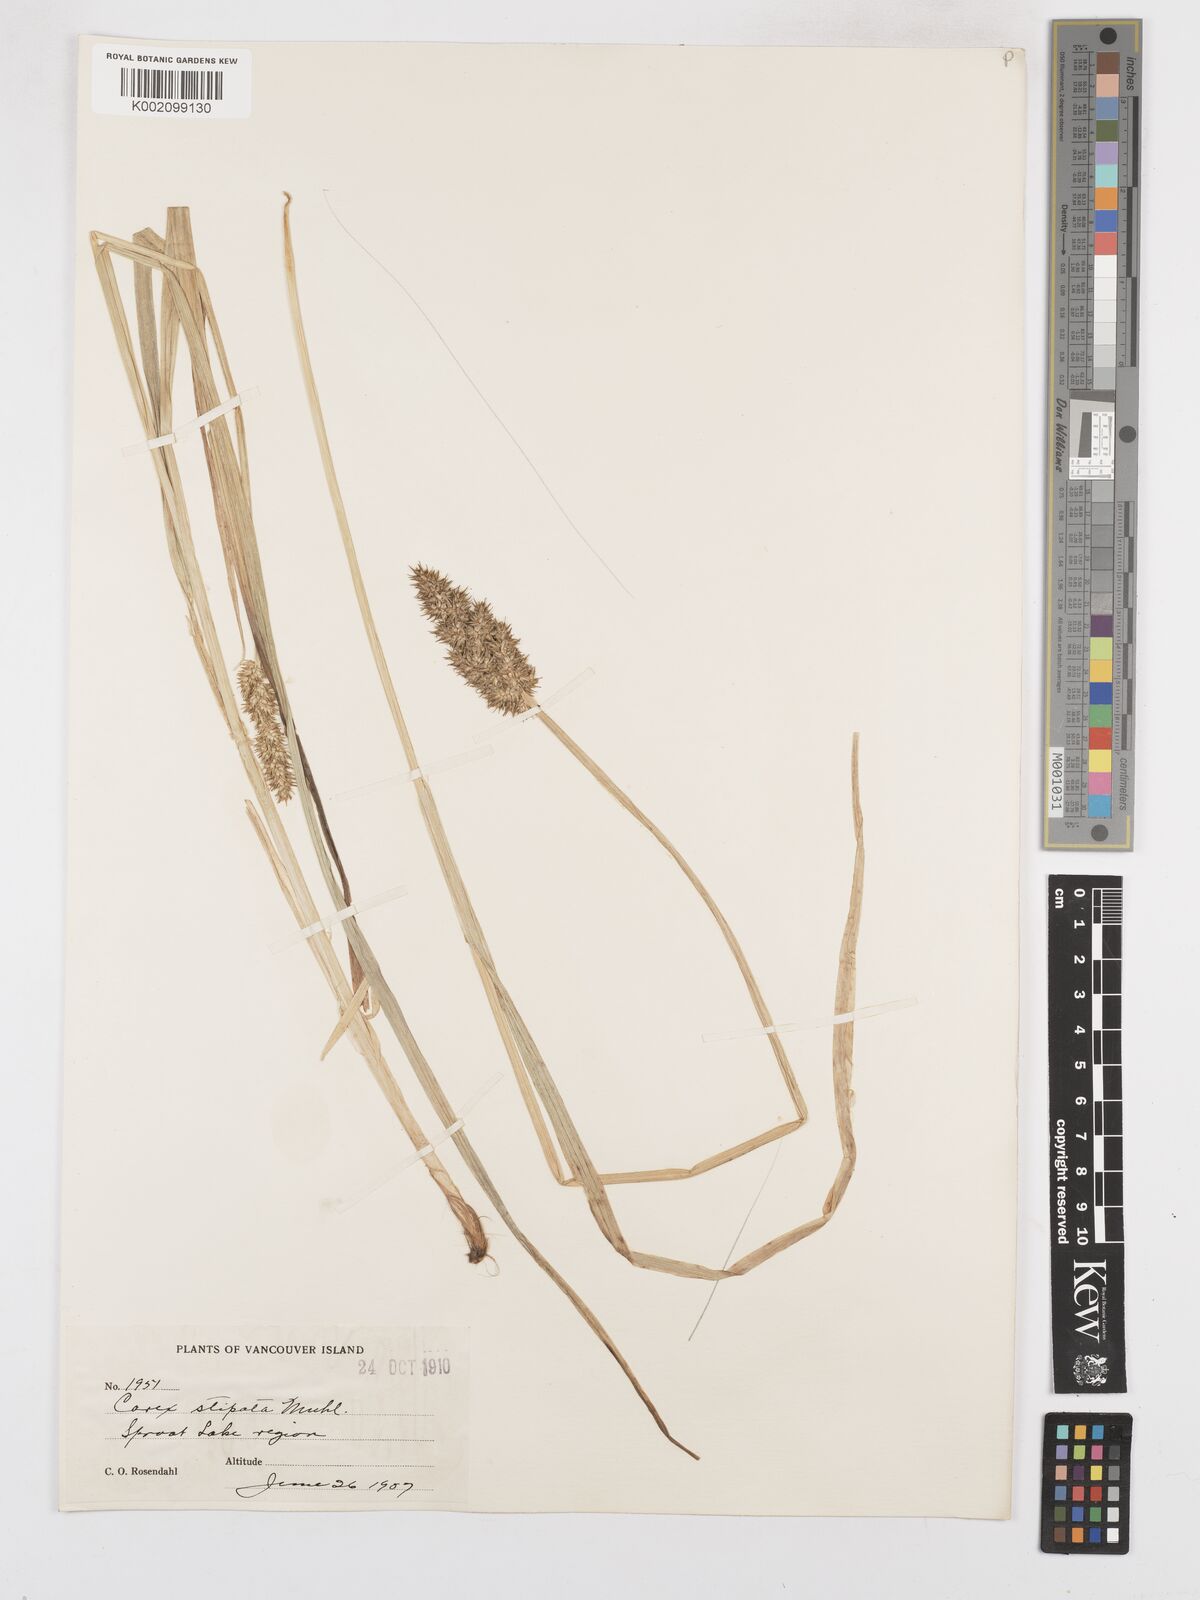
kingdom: Plantae
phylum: Tracheophyta
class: Liliopsida
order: Poales
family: Cyperaceae
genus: Carex
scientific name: Carex stipata
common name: Awl-fruited sedge
